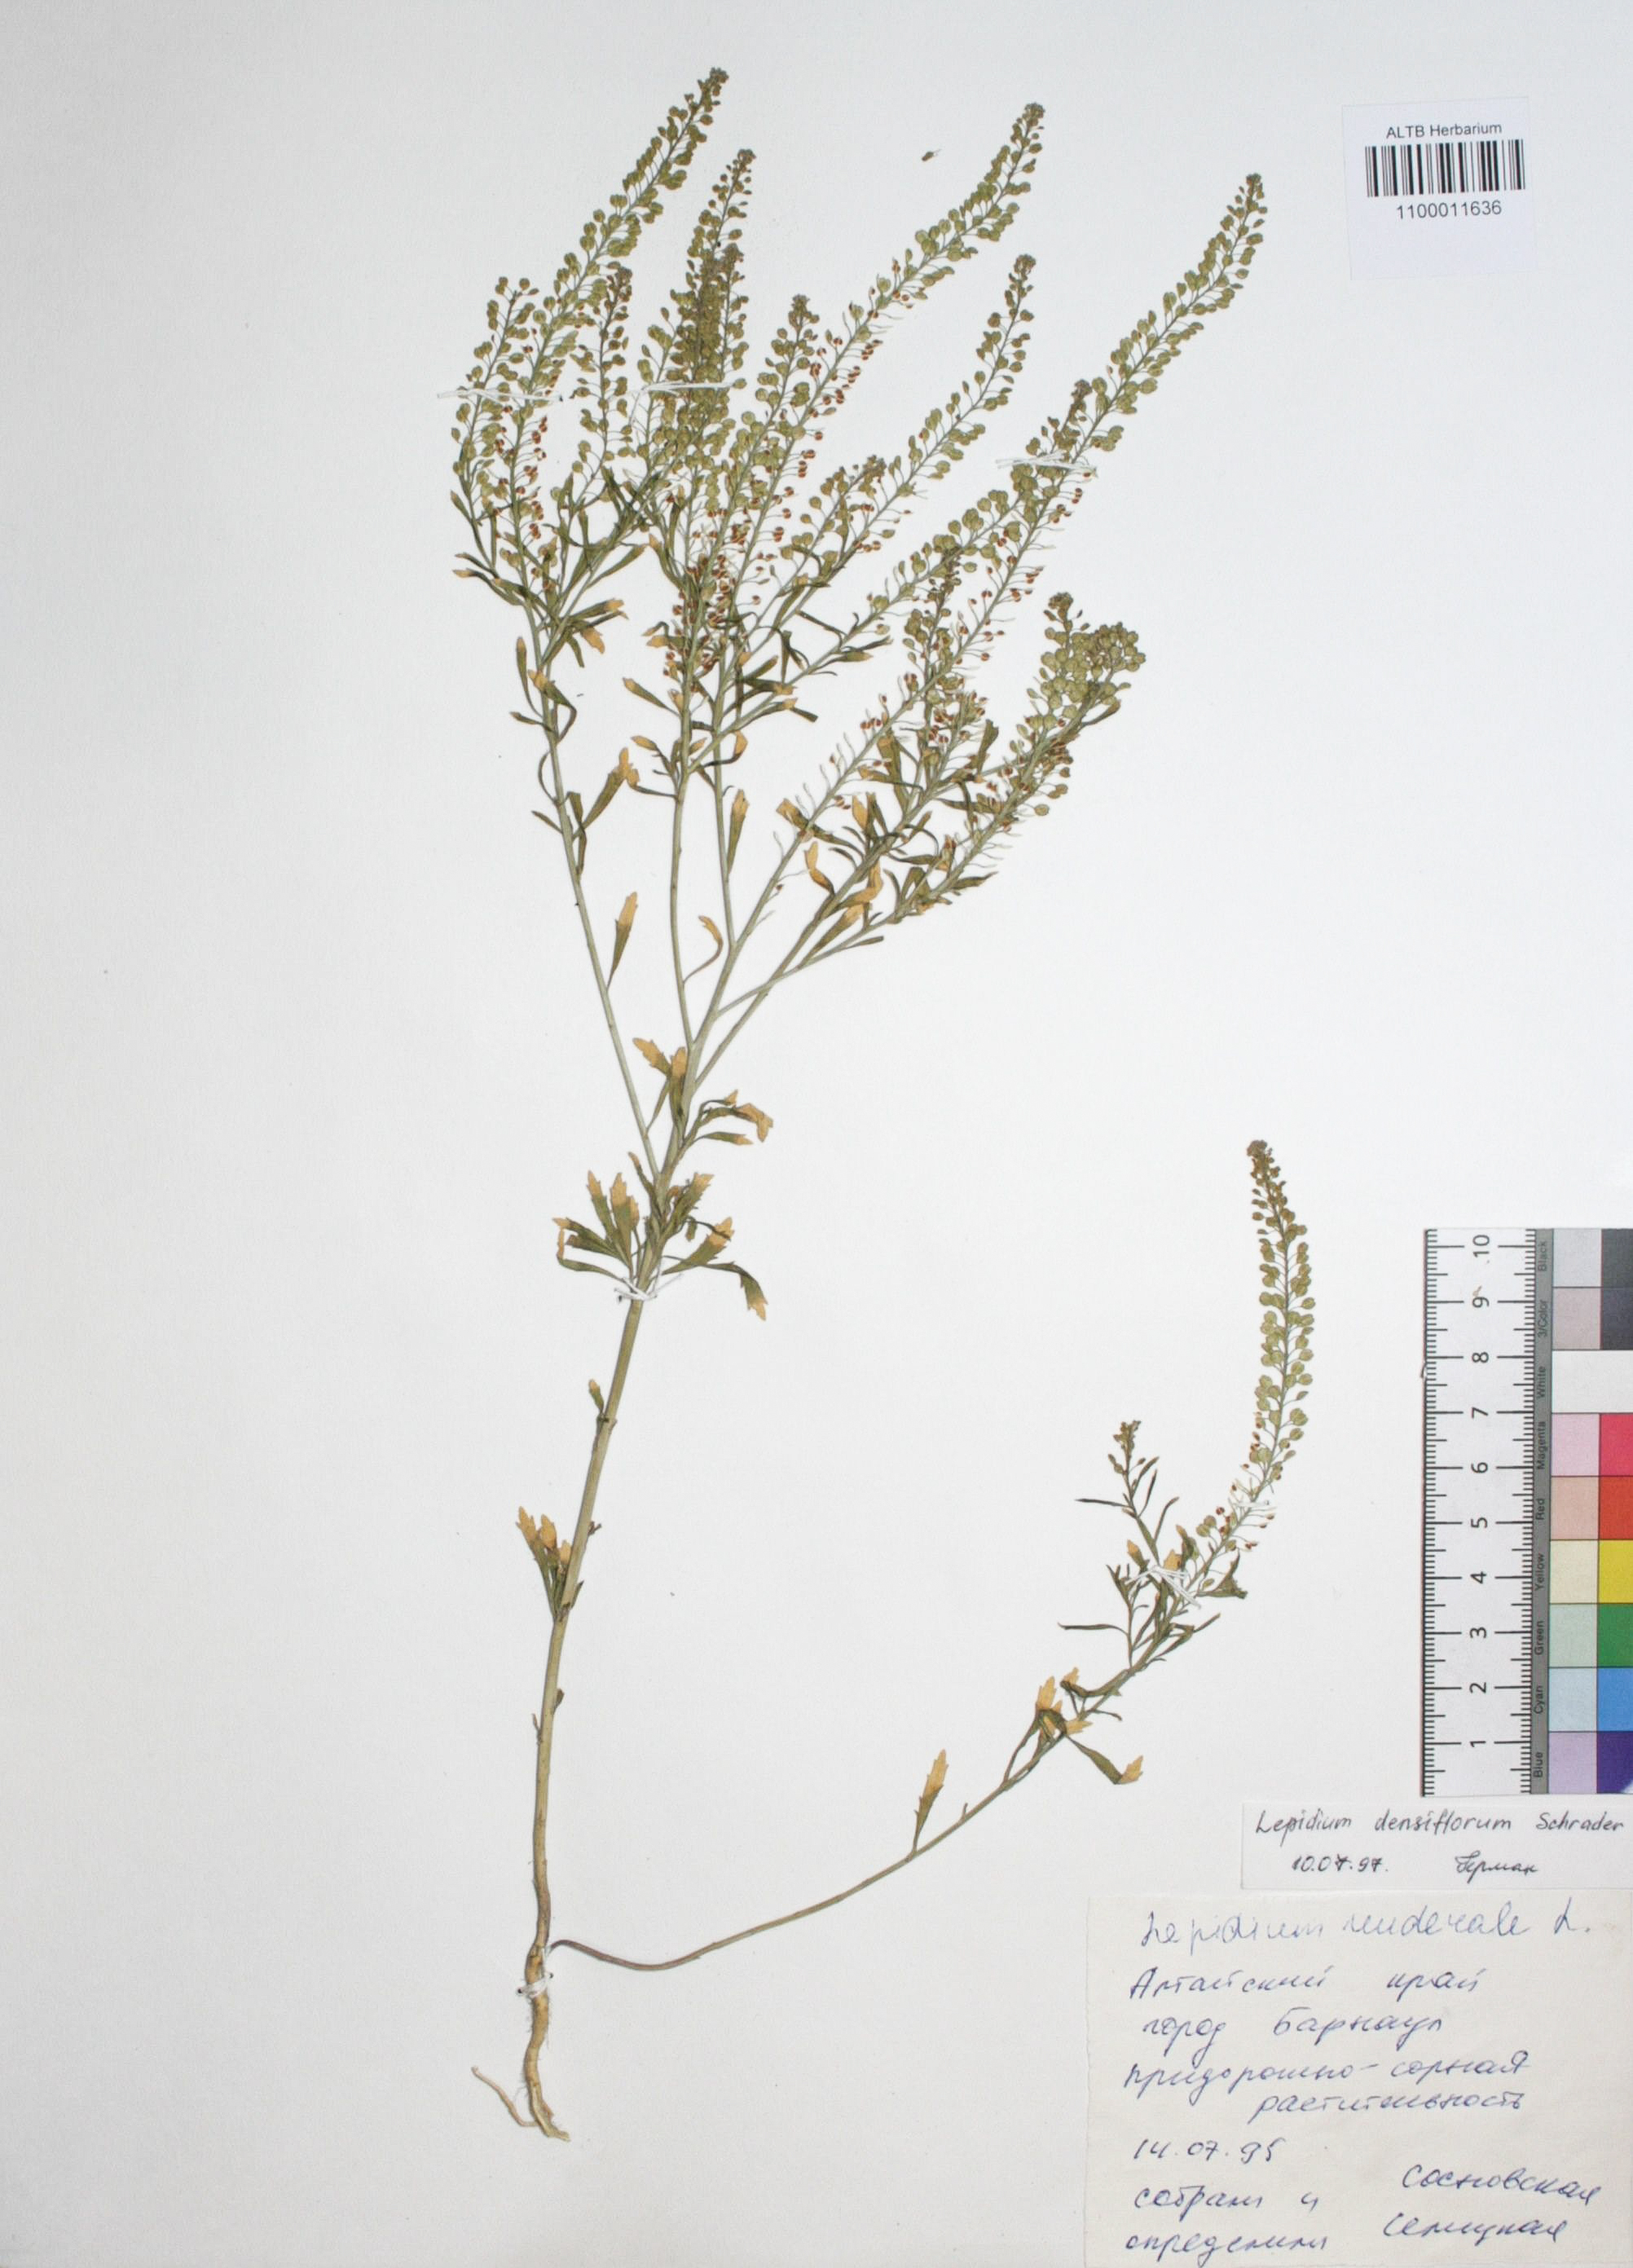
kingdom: Plantae
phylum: Tracheophyta
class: Magnoliopsida
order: Brassicales
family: Brassicaceae
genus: Lepidium
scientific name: Lepidium densiflorum
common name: Miner's pepperwort
